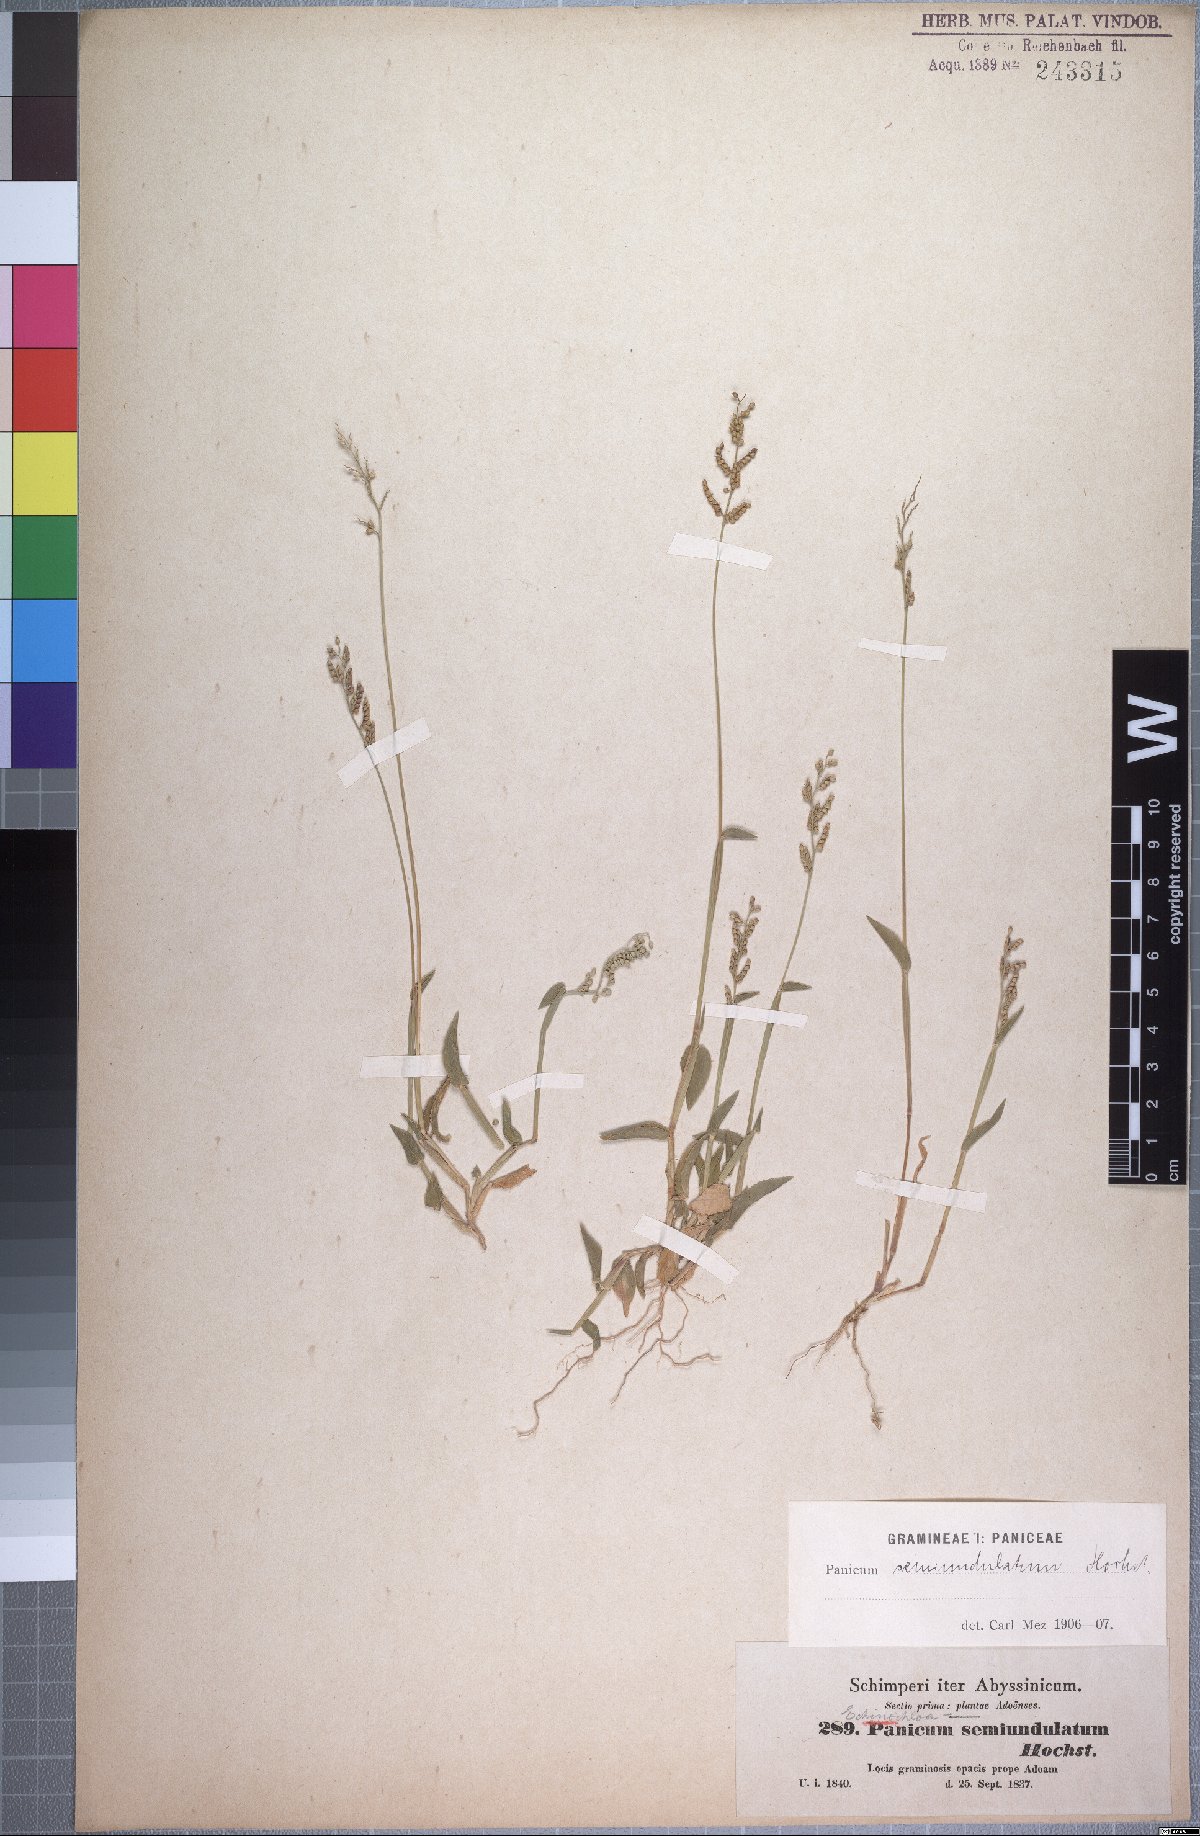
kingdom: Plantae
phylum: Tracheophyta
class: Liliopsida
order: Poales
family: Poaceae
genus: Urochloa
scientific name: Urochloa semiundulata
